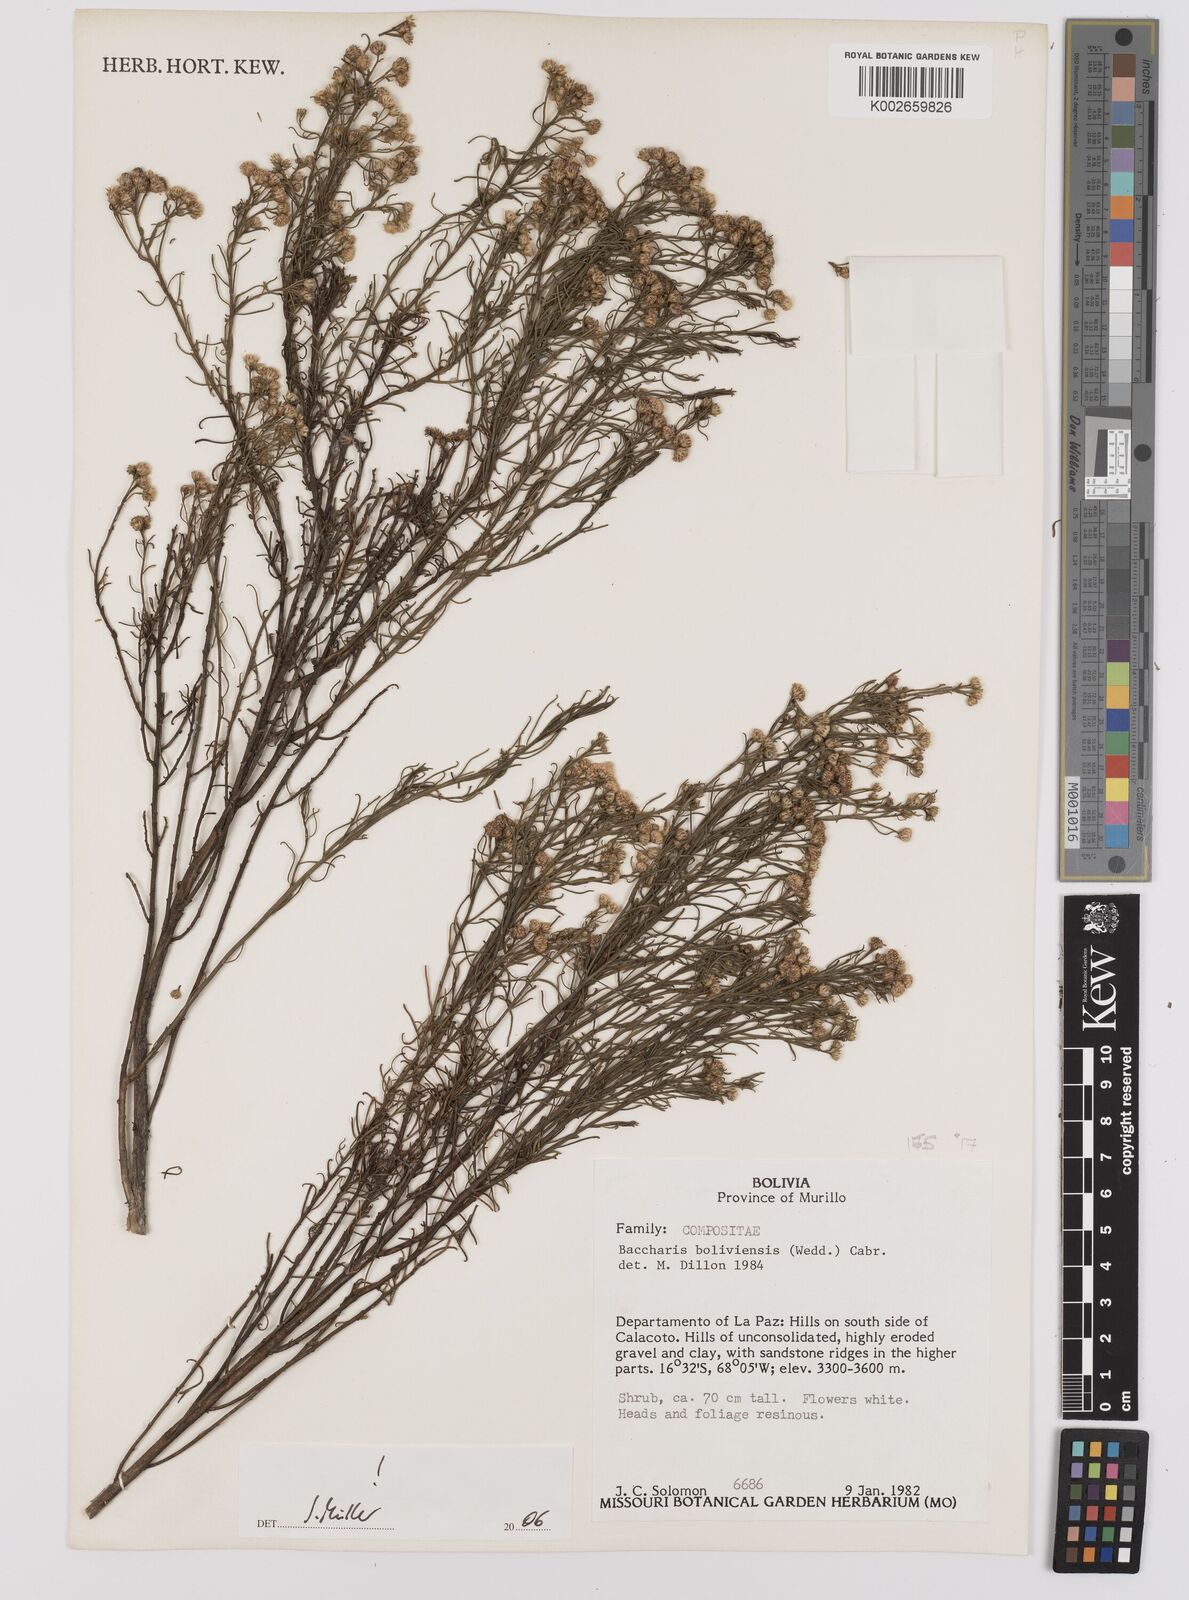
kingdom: Plantae
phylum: Tracheophyta
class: Magnoliopsida
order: Asterales
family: Asteraceae
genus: Baccharis
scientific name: Baccharis bolivensis
